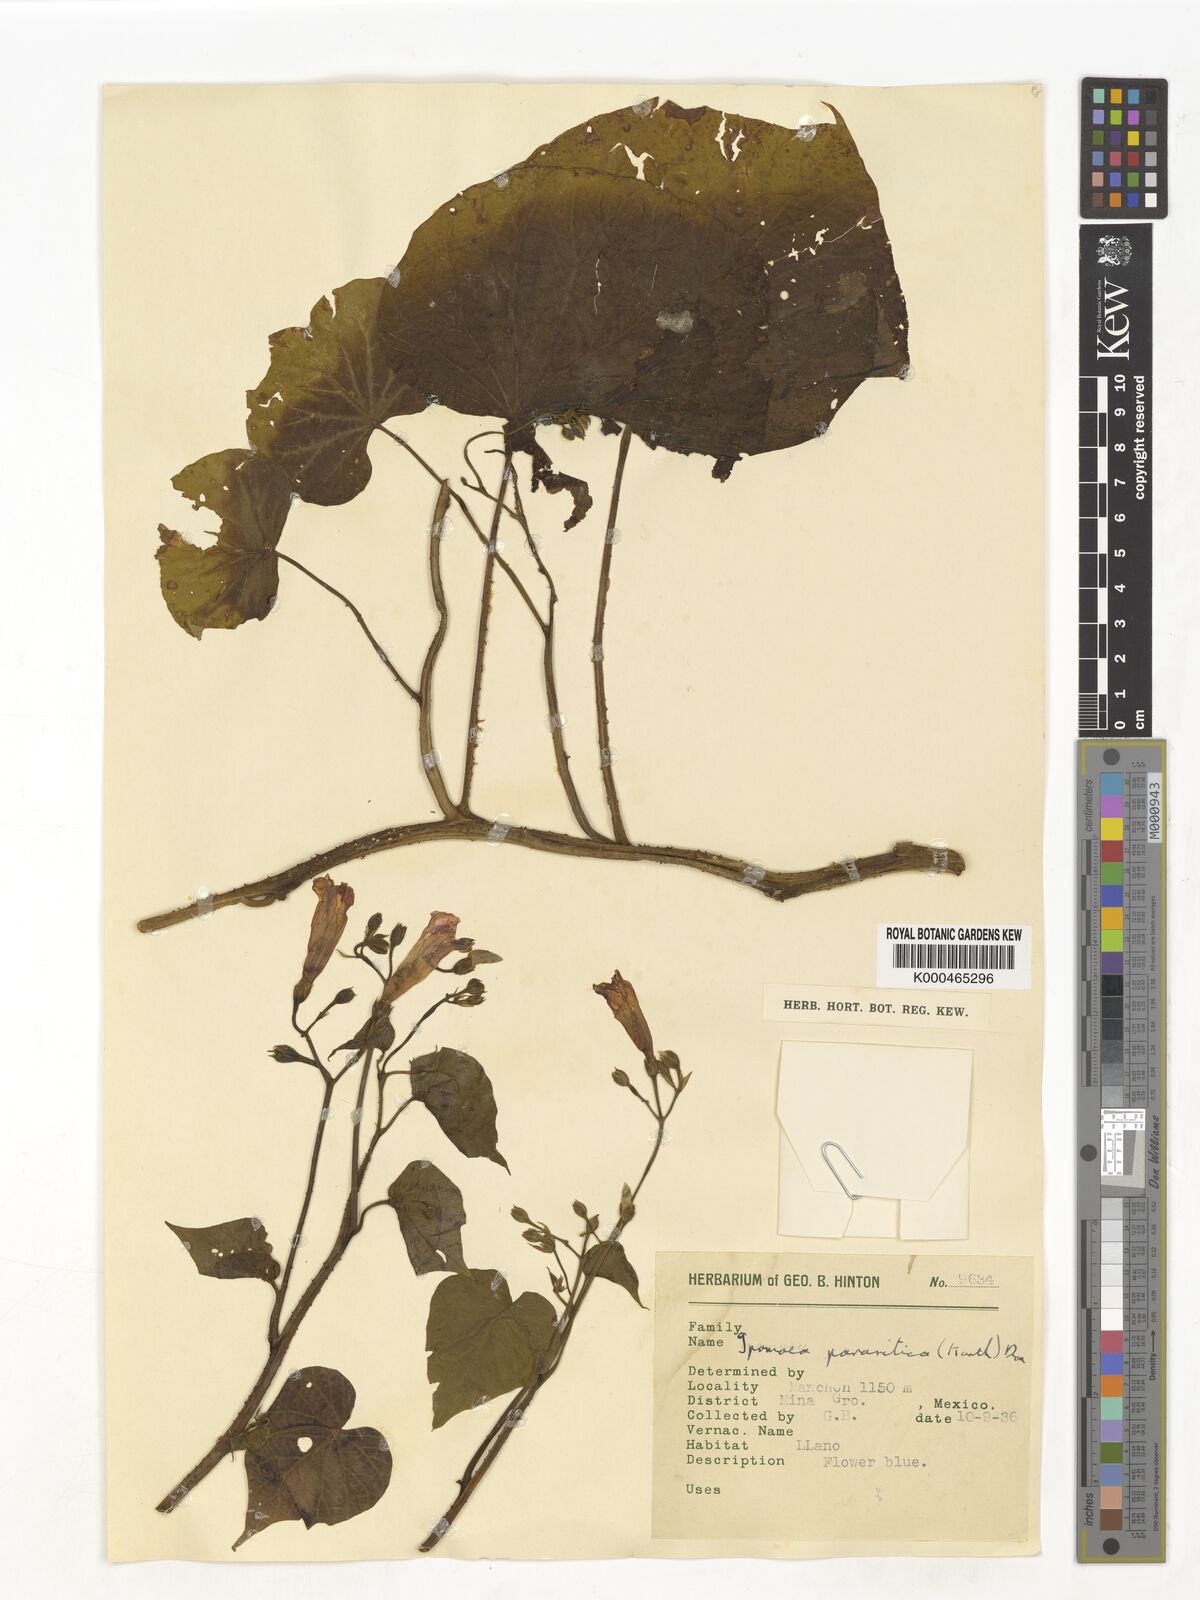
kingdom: Plantae
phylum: Tracheophyta
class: Magnoliopsida
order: Solanales
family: Convolvulaceae
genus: Ipomoea
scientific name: Ipomoea parasitica
